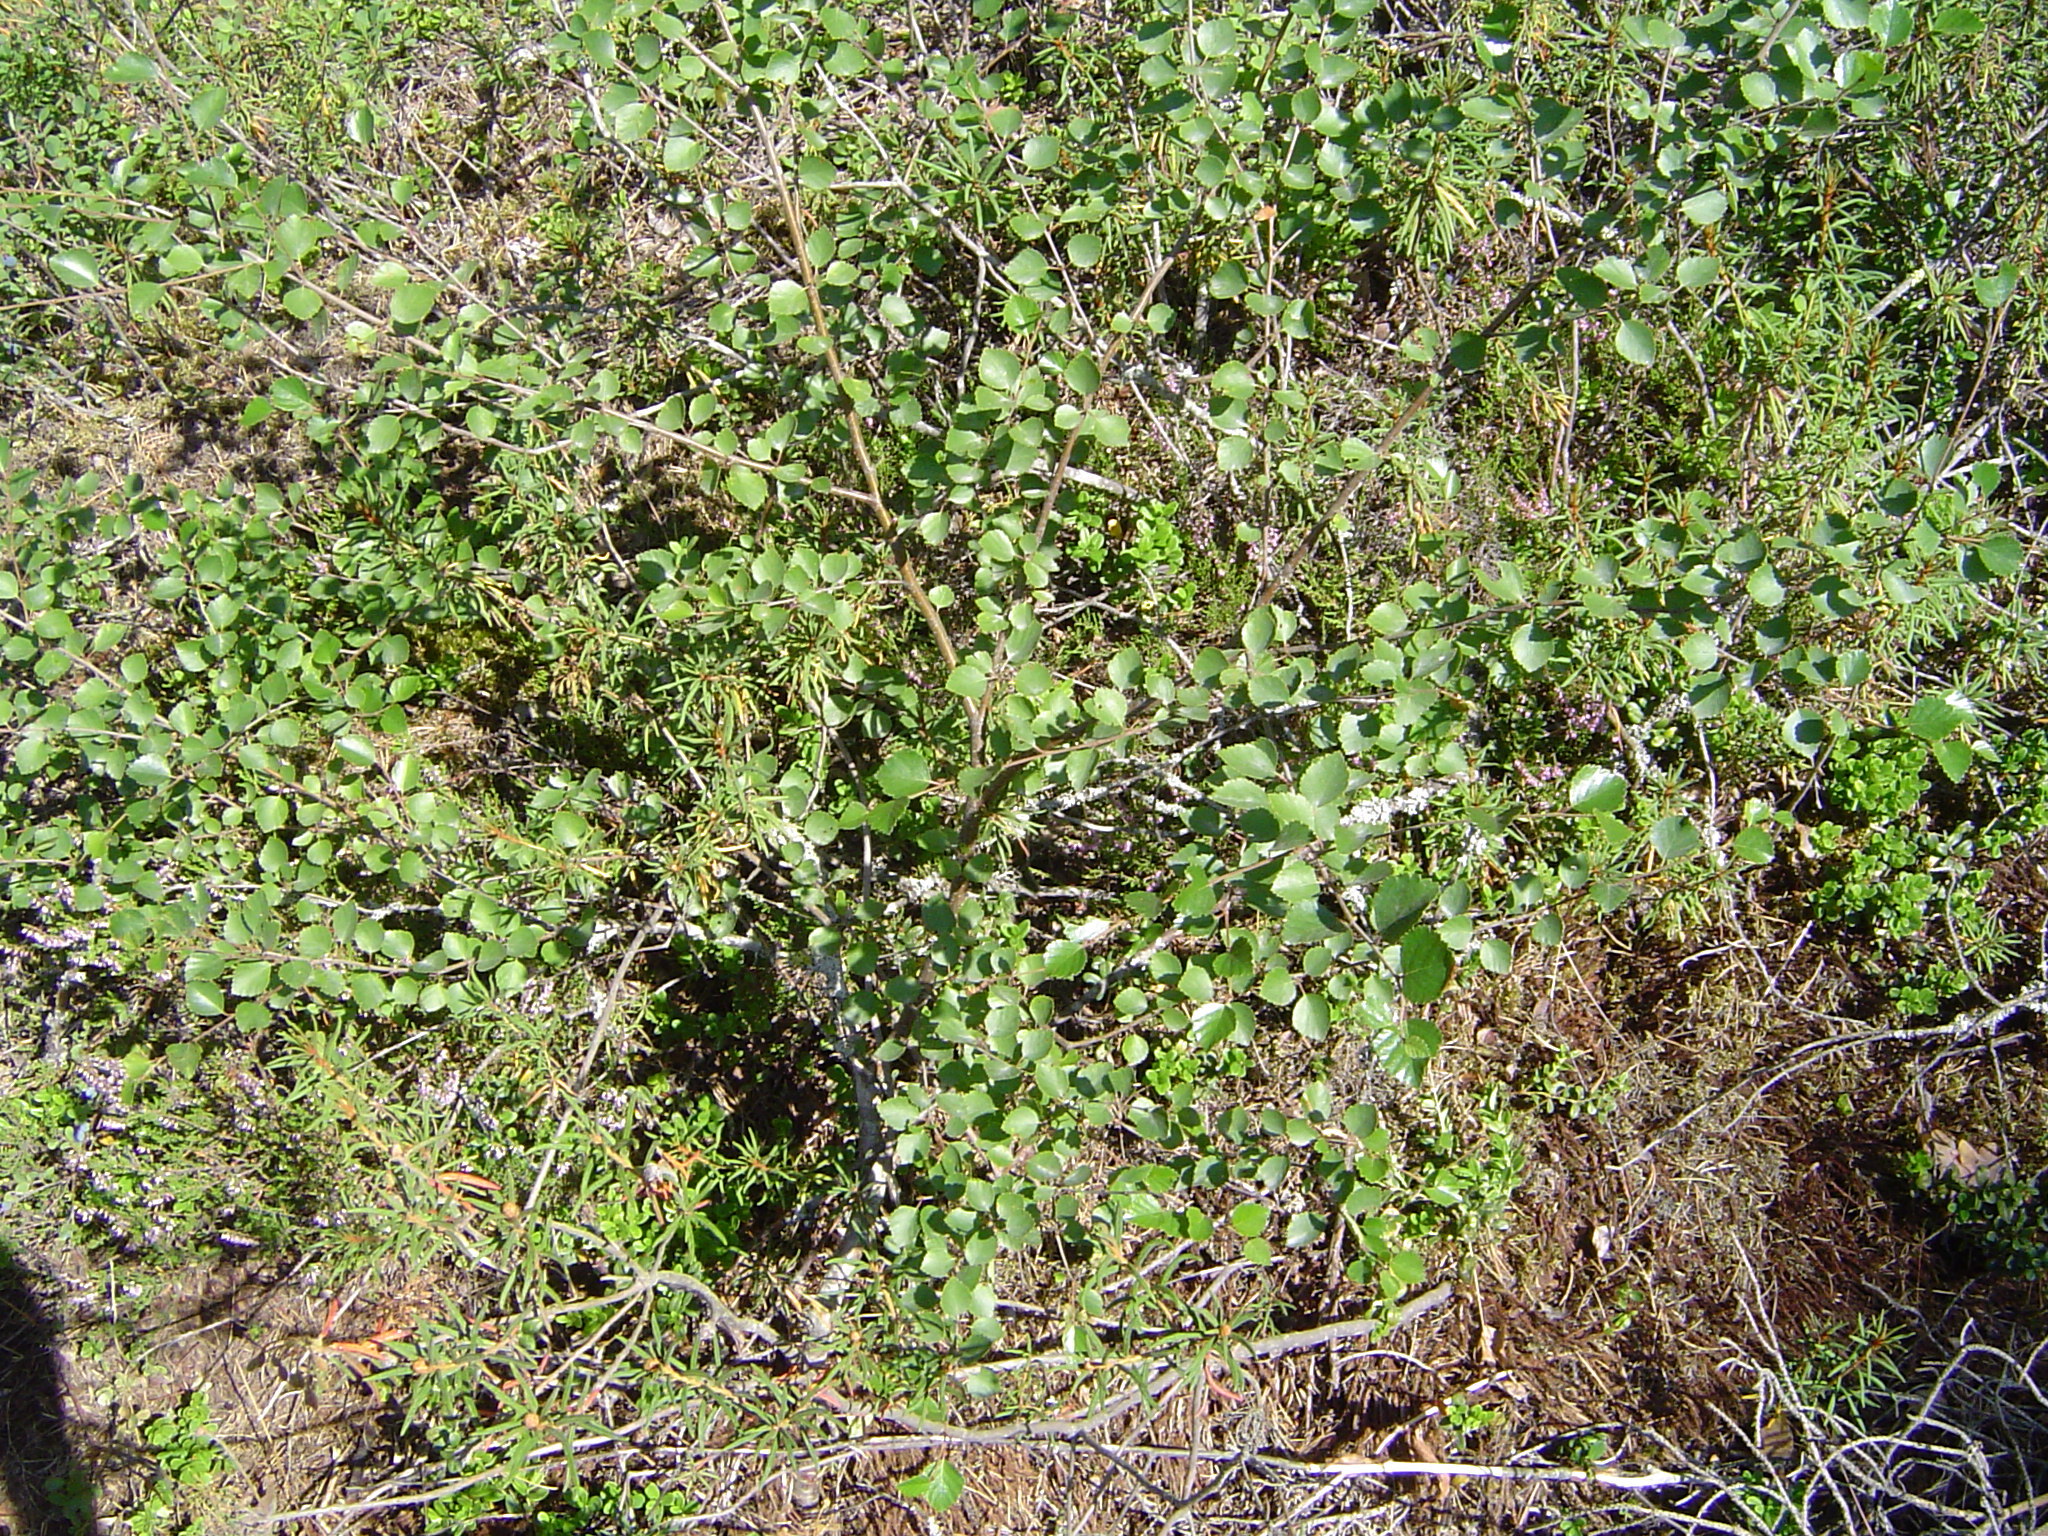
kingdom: Plantae
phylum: Tracheophyta
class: Magnoliopsida
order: Fagales
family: Betulaceae
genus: Betula
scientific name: Betula
